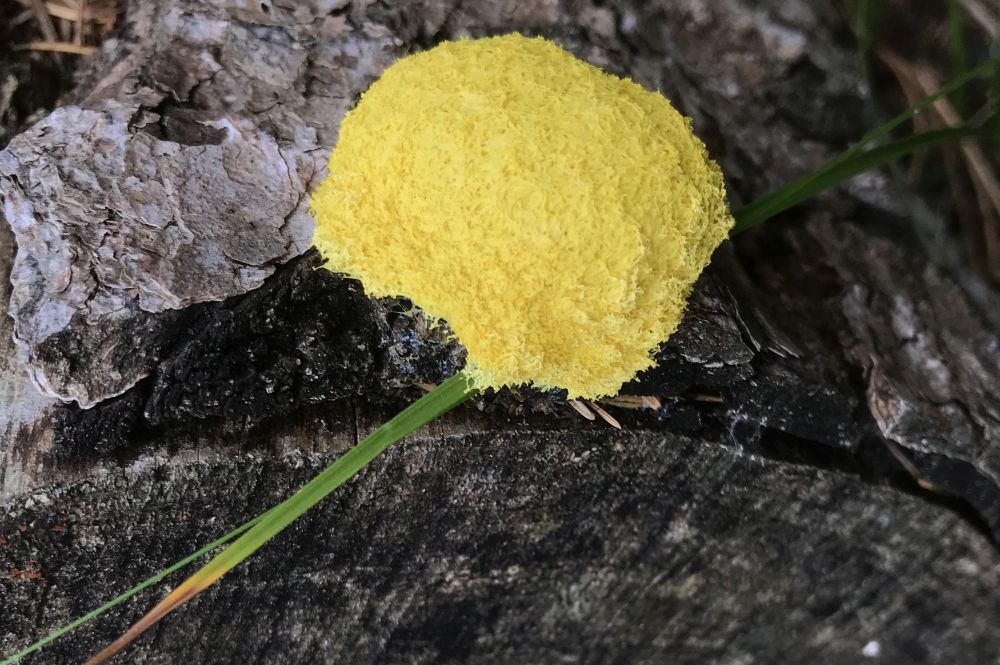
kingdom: Protozoa
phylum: Mycetozoa
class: Myxomycetes
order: Physarales
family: Physaraceae
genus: Fuligo
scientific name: Fuligo septica
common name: gul troldsmør
